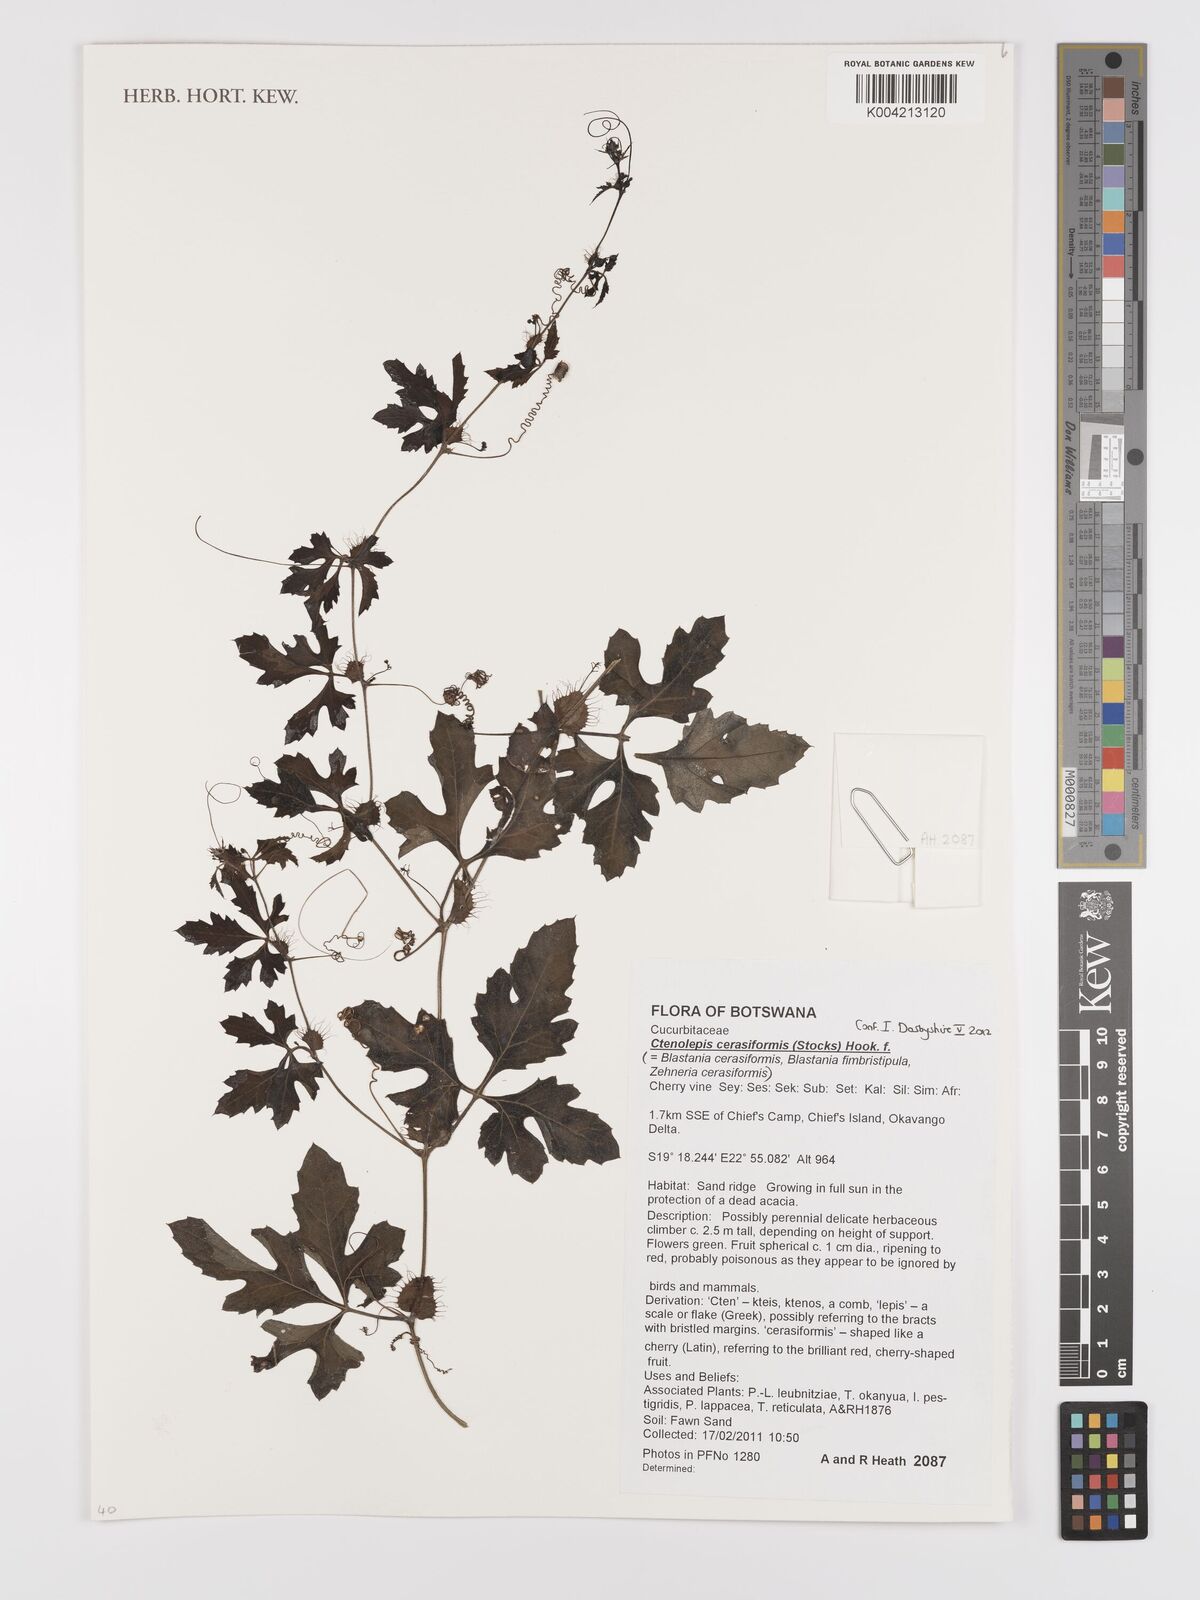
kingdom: Plantae
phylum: Tracheophyta
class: Magnoliopsida
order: Cucurbitales
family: Cucurbitaceae
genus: Blastania
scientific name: Blastania cerasiformis
